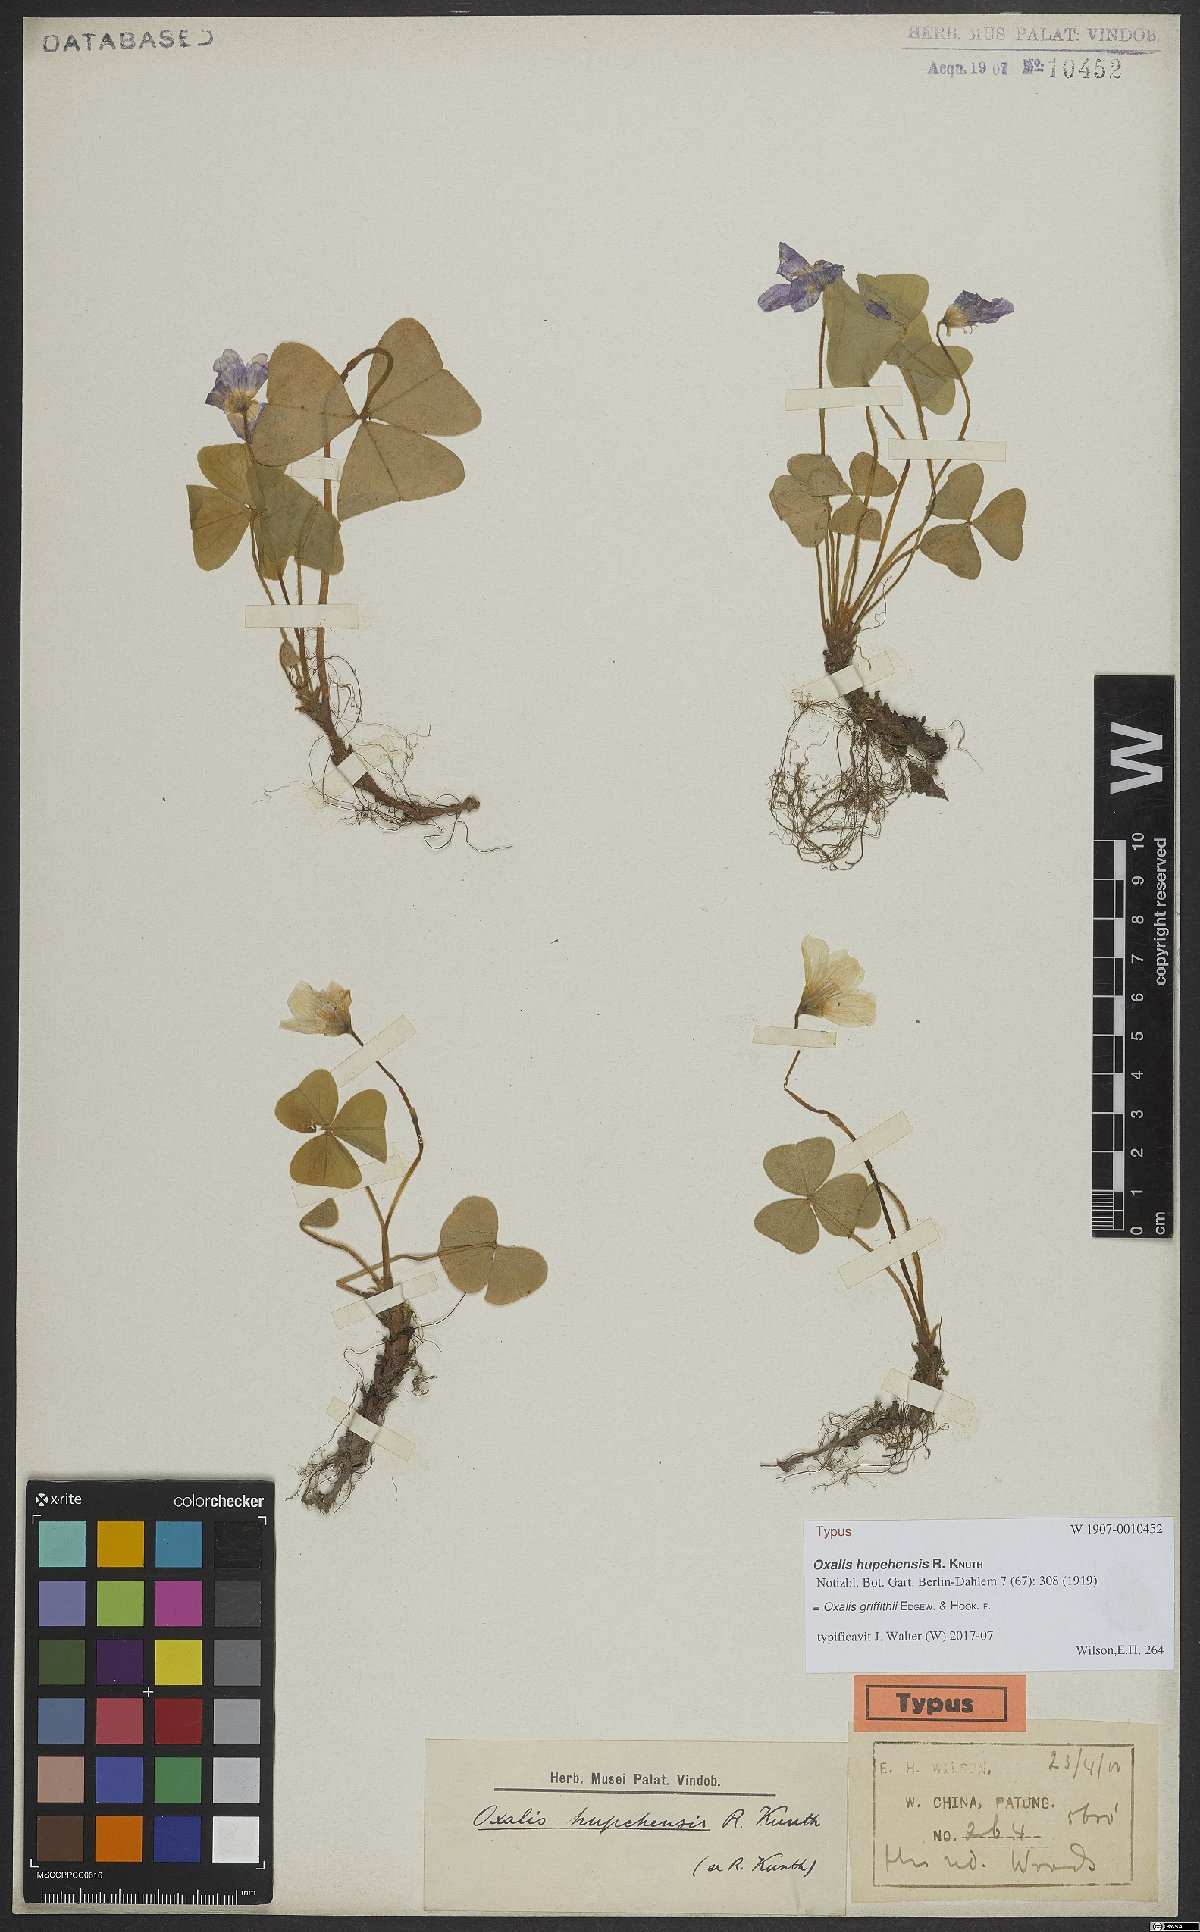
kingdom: Plantae
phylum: Tracheophyta
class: Magnoliopsida
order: Oxalidales
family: Oxalidaceae
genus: Oxalis
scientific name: Oxalis griffithii
